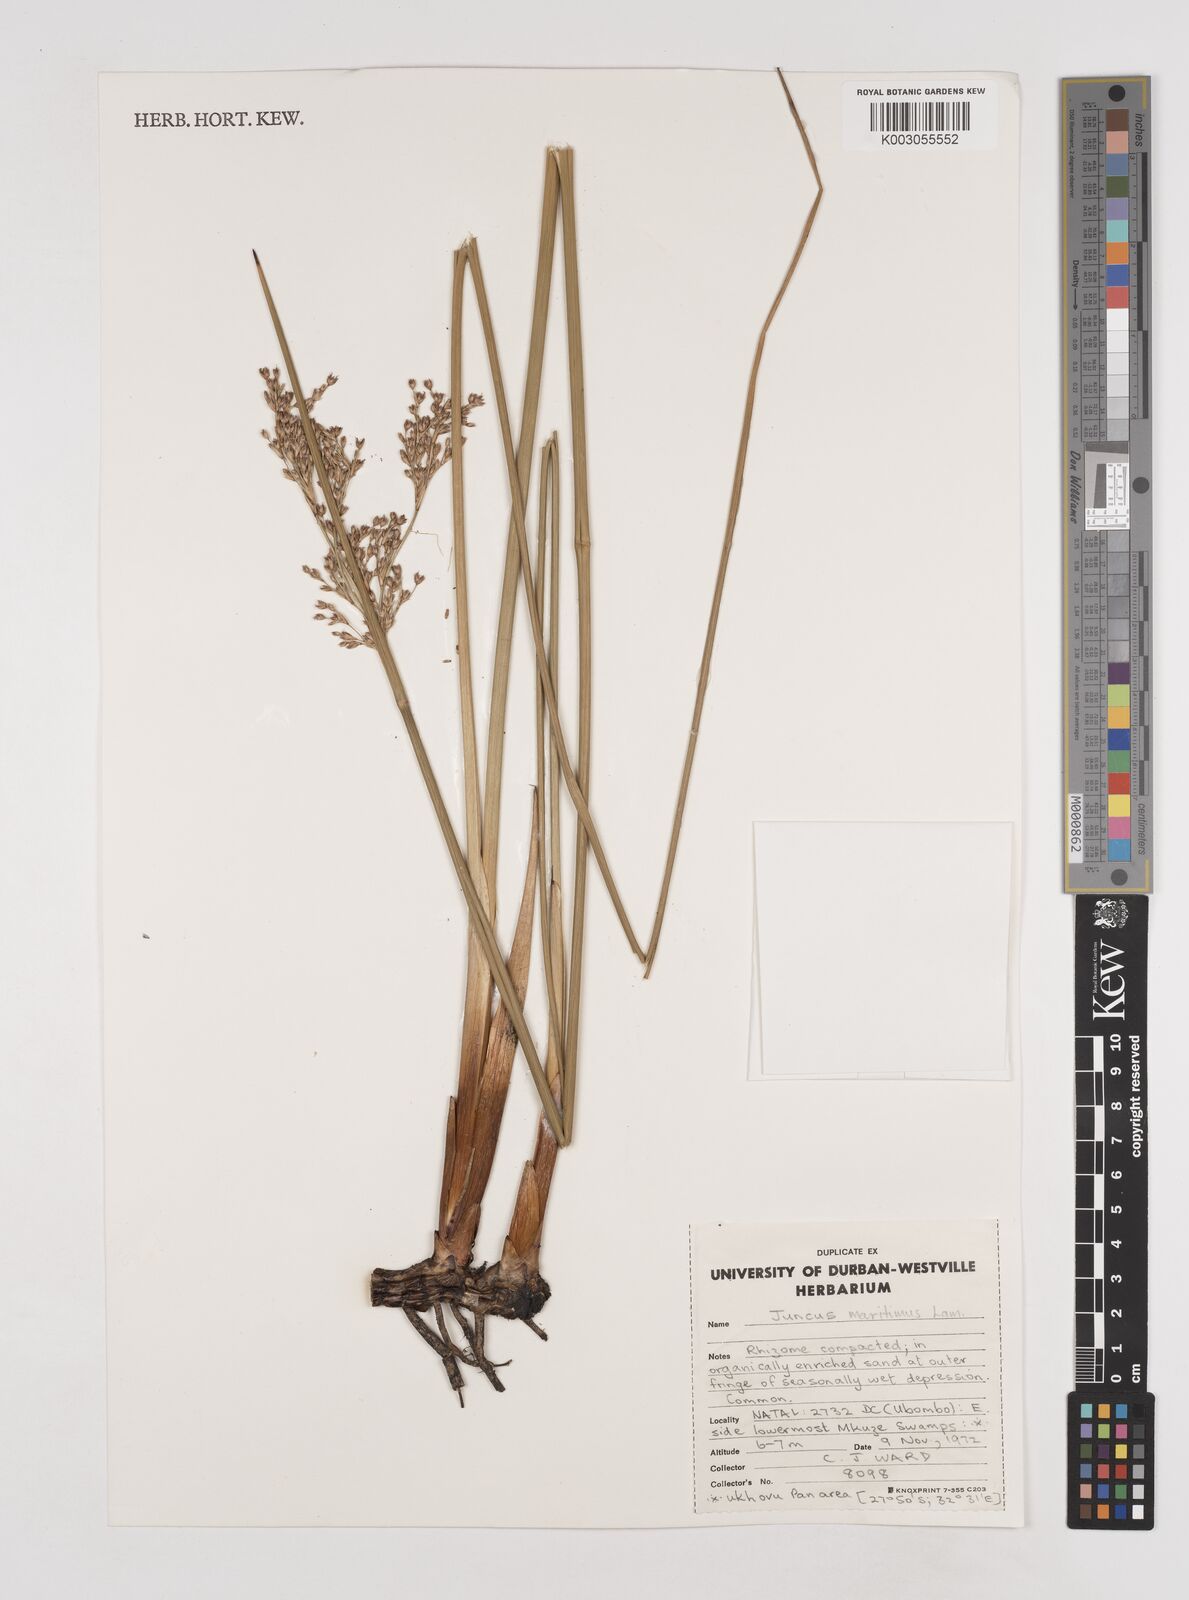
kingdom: Plantae
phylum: Tracheophyta
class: Liliopsida
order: Poales
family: Juncaceae
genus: Juncus
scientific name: Juncus kraussii
